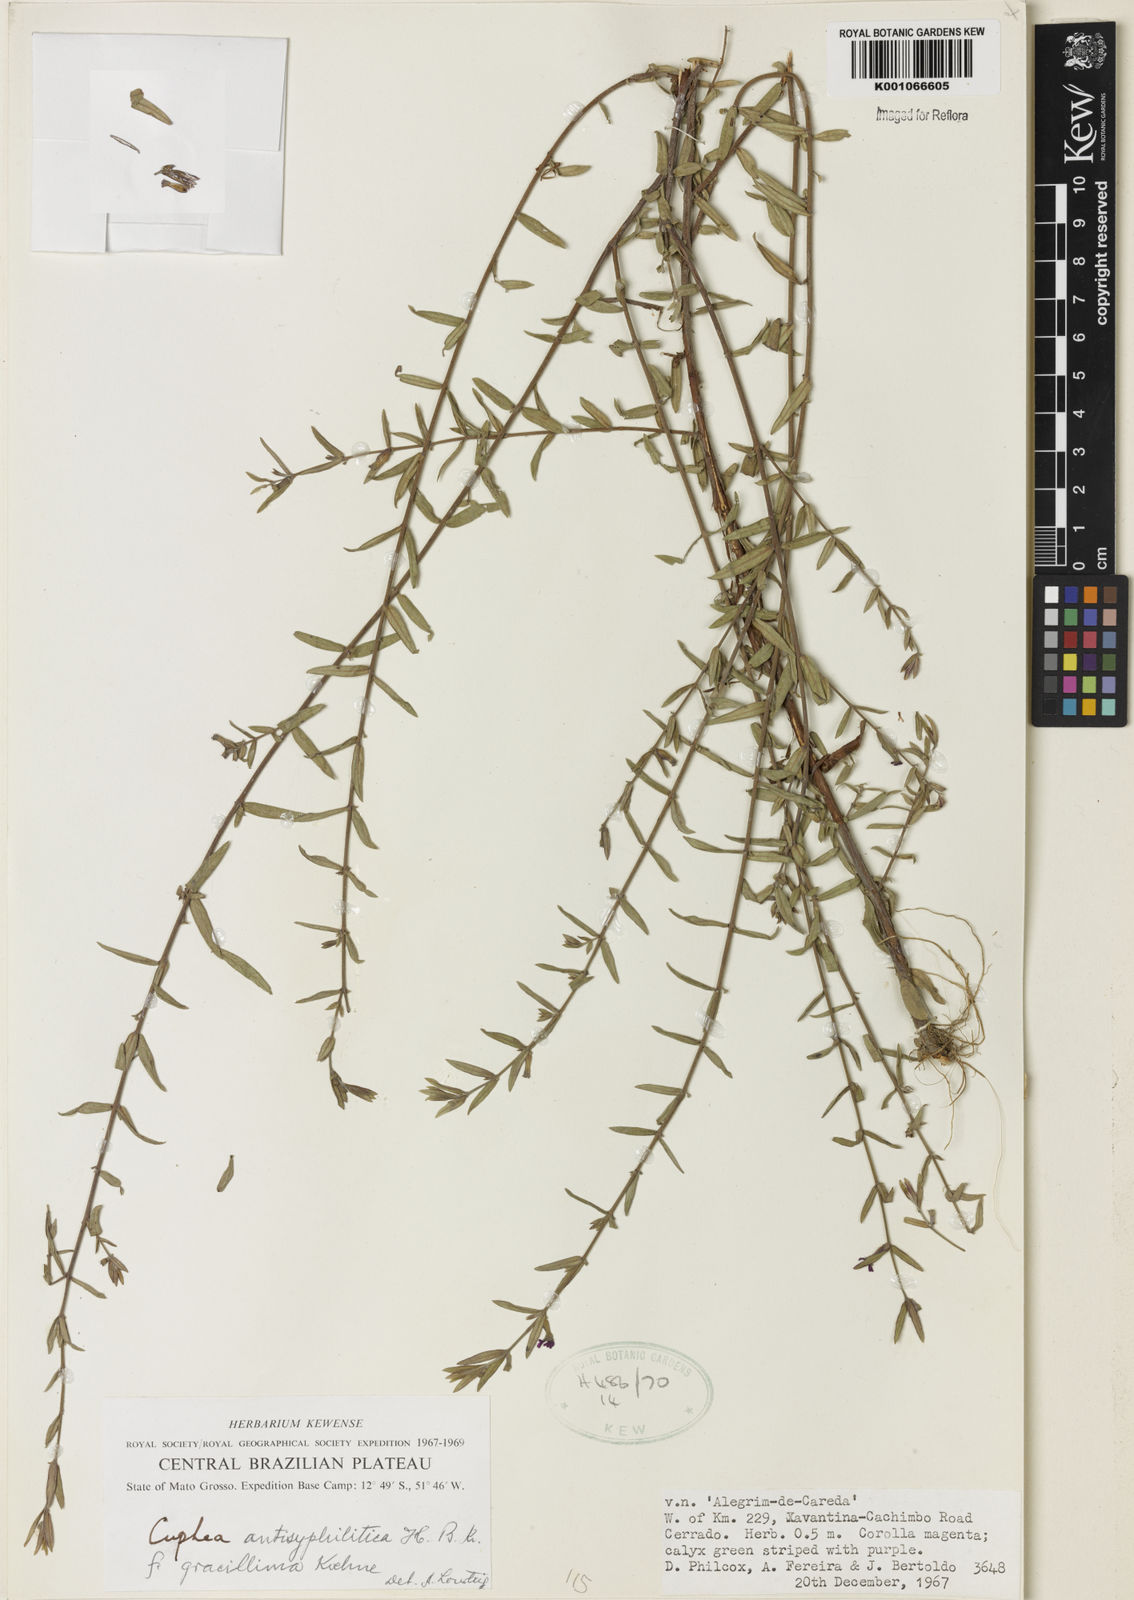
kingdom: Plantae
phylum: Tracheophyta
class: Magnoliopsida
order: Myrtales
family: Lythraceae
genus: Cuphea
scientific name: Cuphea antisyphilitica
